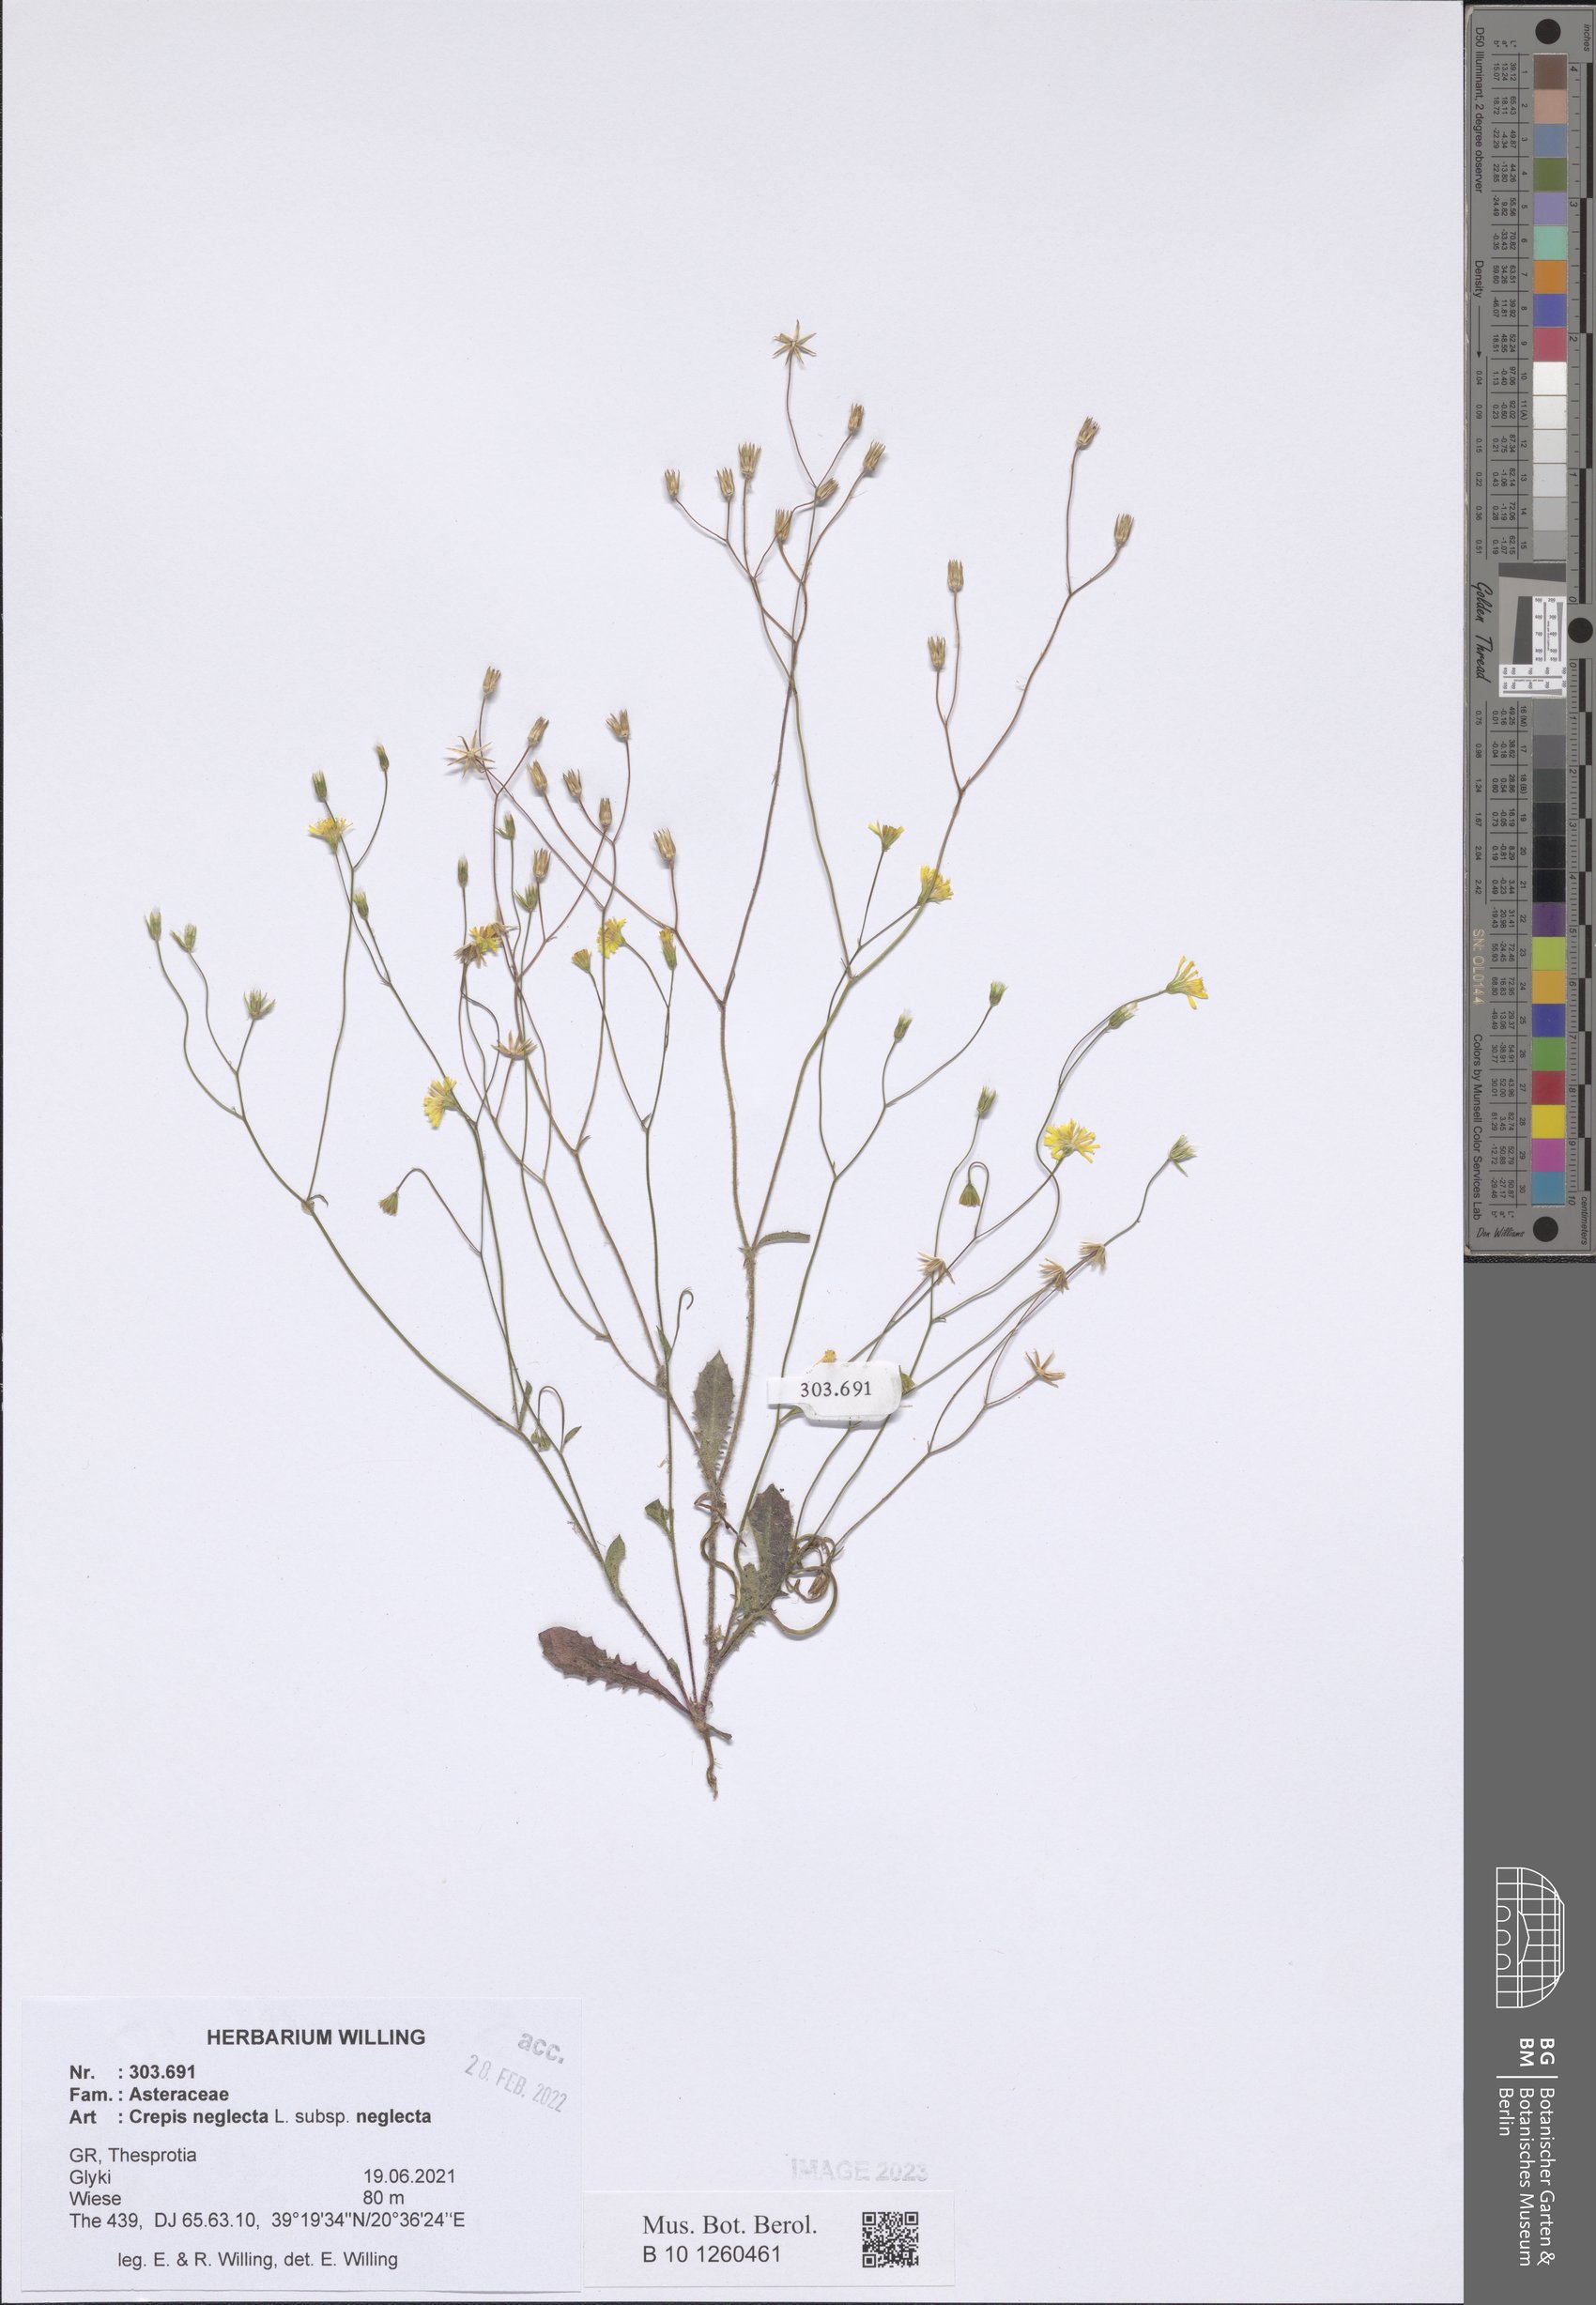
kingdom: Plantae
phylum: Tracheophyta
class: Magnoliopsida
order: Asterales
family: Asteraceae
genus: Crepis
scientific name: Crepis neglecta
